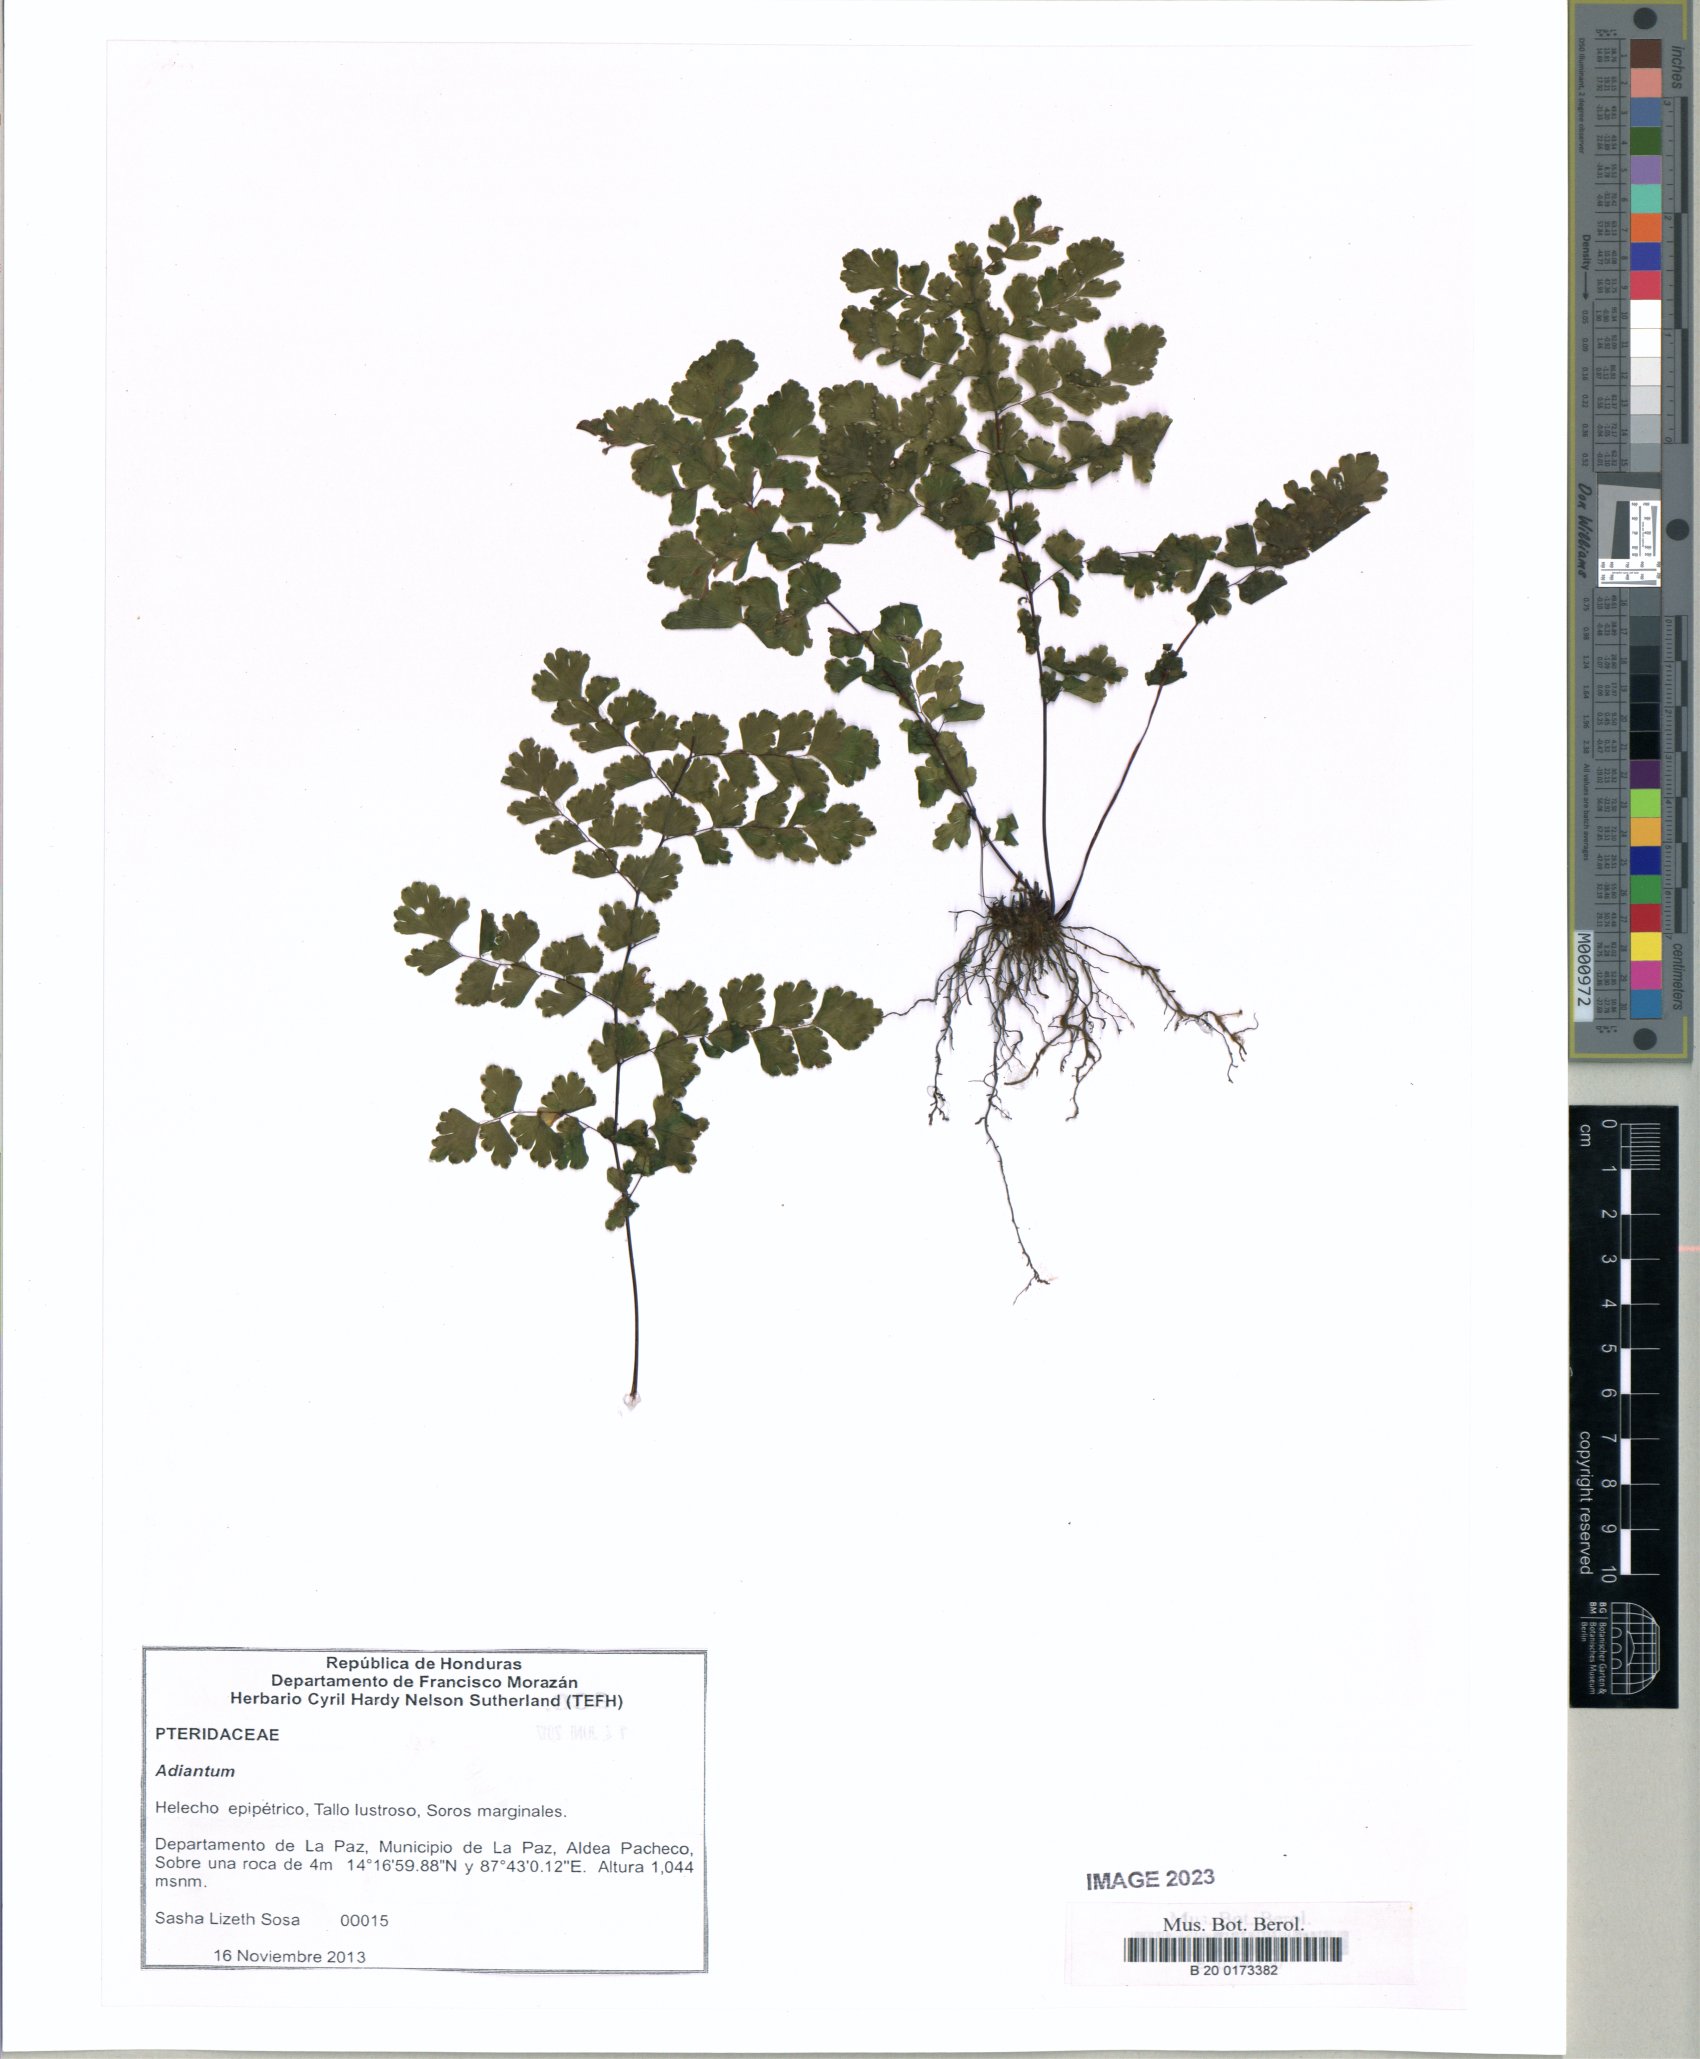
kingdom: Plantae
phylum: Tracheophyta
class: Polypodiopsida
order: Polypodiales
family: Pteridaceae
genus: Adiantum
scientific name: Adiantum concinnum
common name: Brittle maidenhair fern
